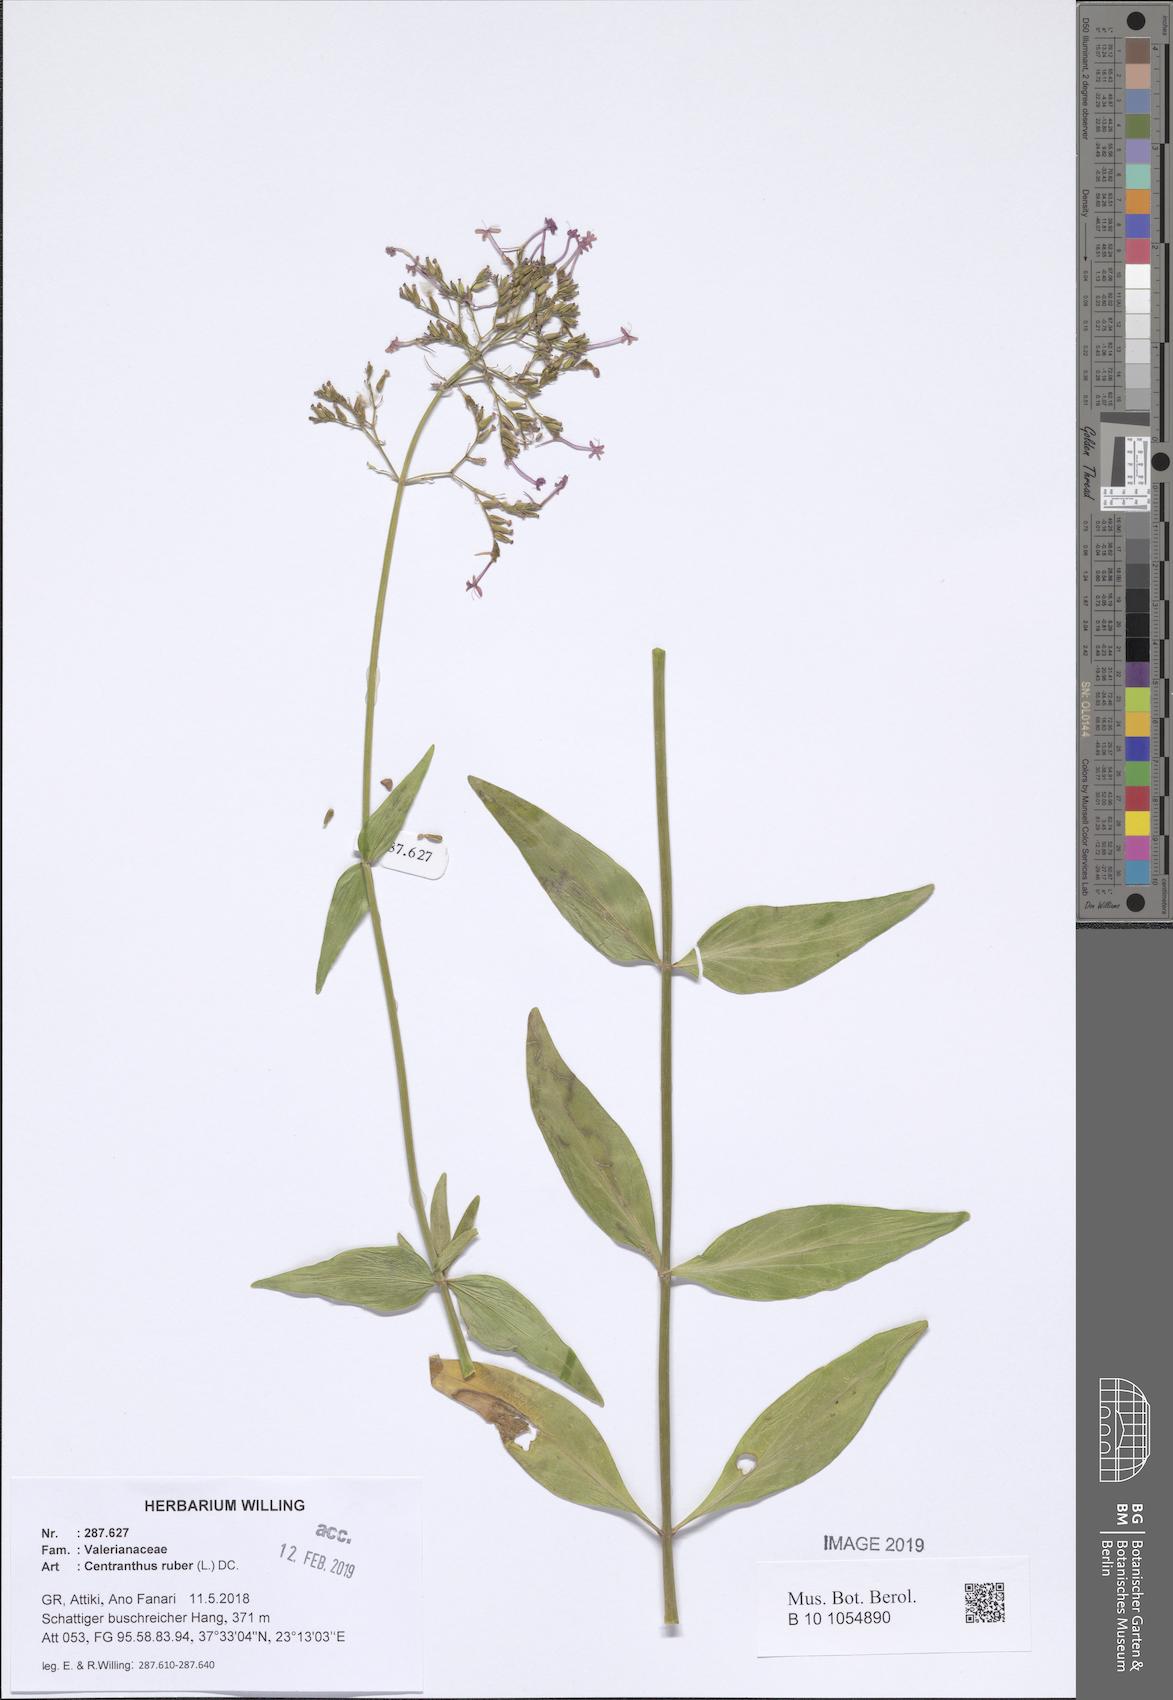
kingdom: Plantae
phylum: Tracheophyta
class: Magnoliopsida
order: Dipsacales
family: Caprifoliaceae
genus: Centranthus
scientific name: Centranthus ruber
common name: Red valerian
